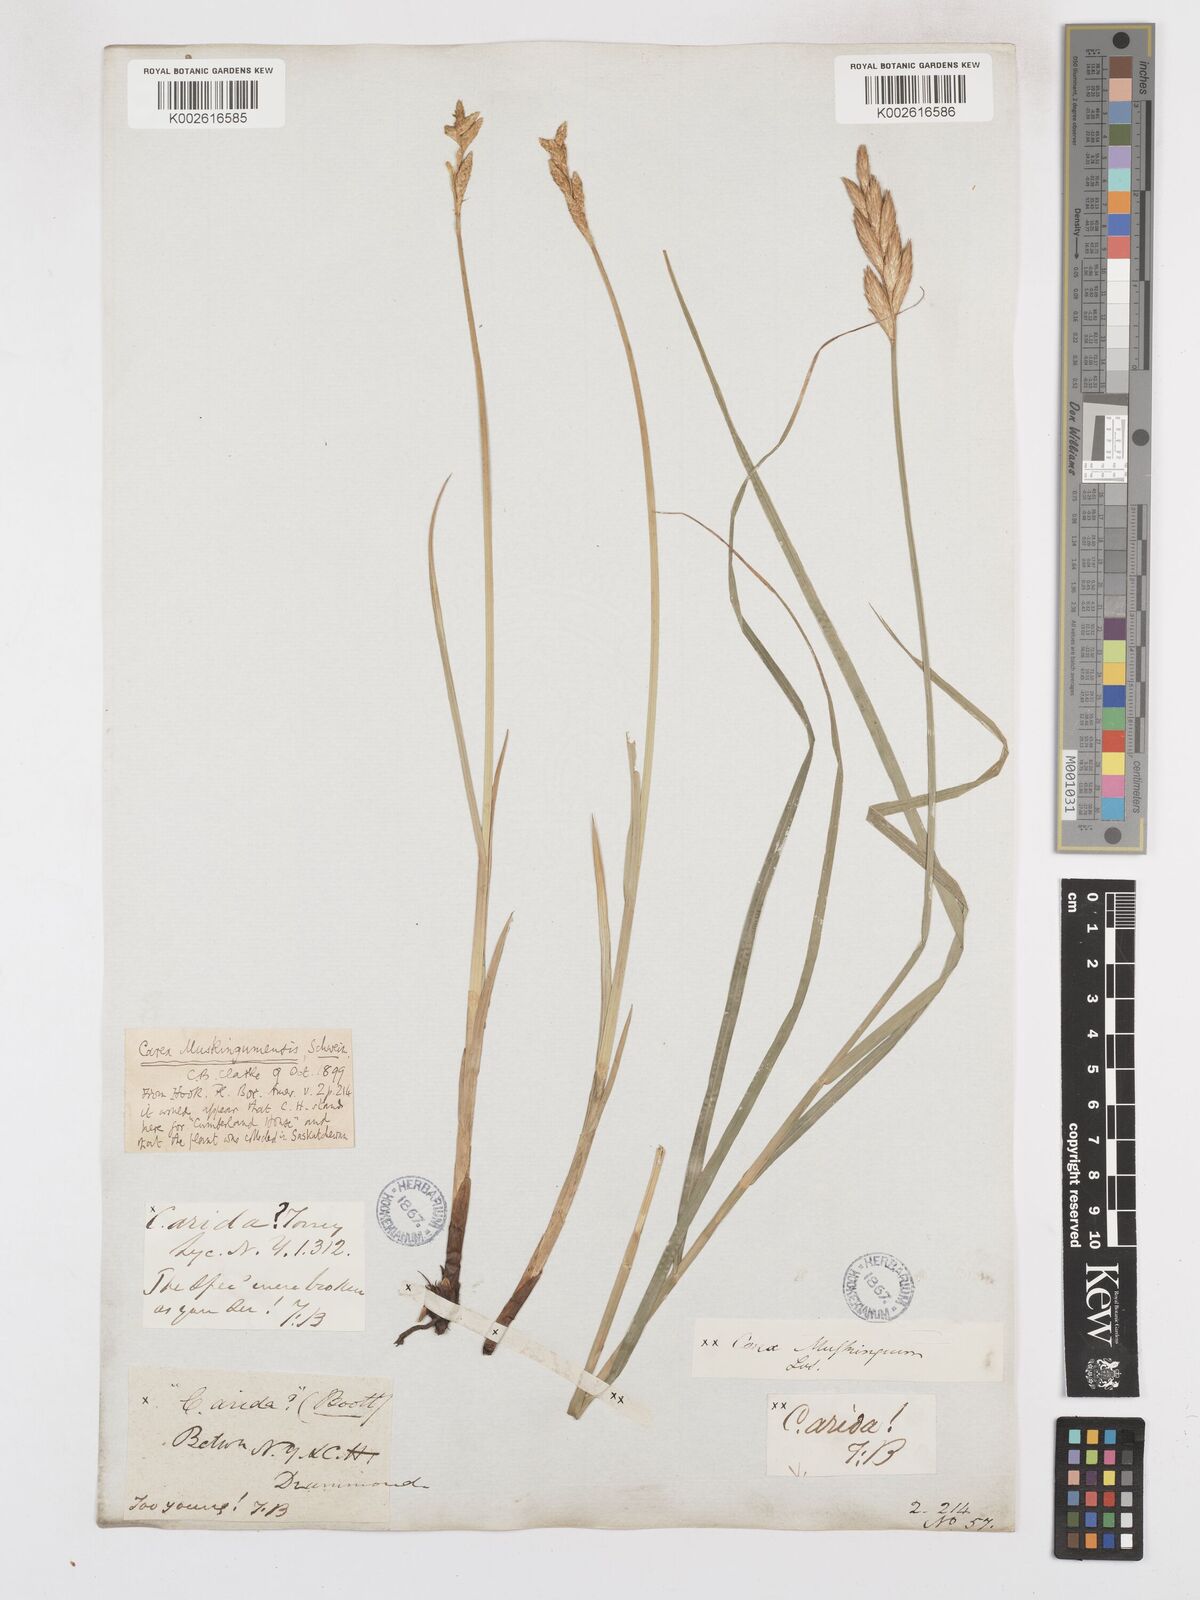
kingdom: Plantae
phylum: Tracheophyta
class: Liliopsida
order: Poales
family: Cyperaceae
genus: Carex
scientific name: Carex muskingumensis
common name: Muskingum sedge
